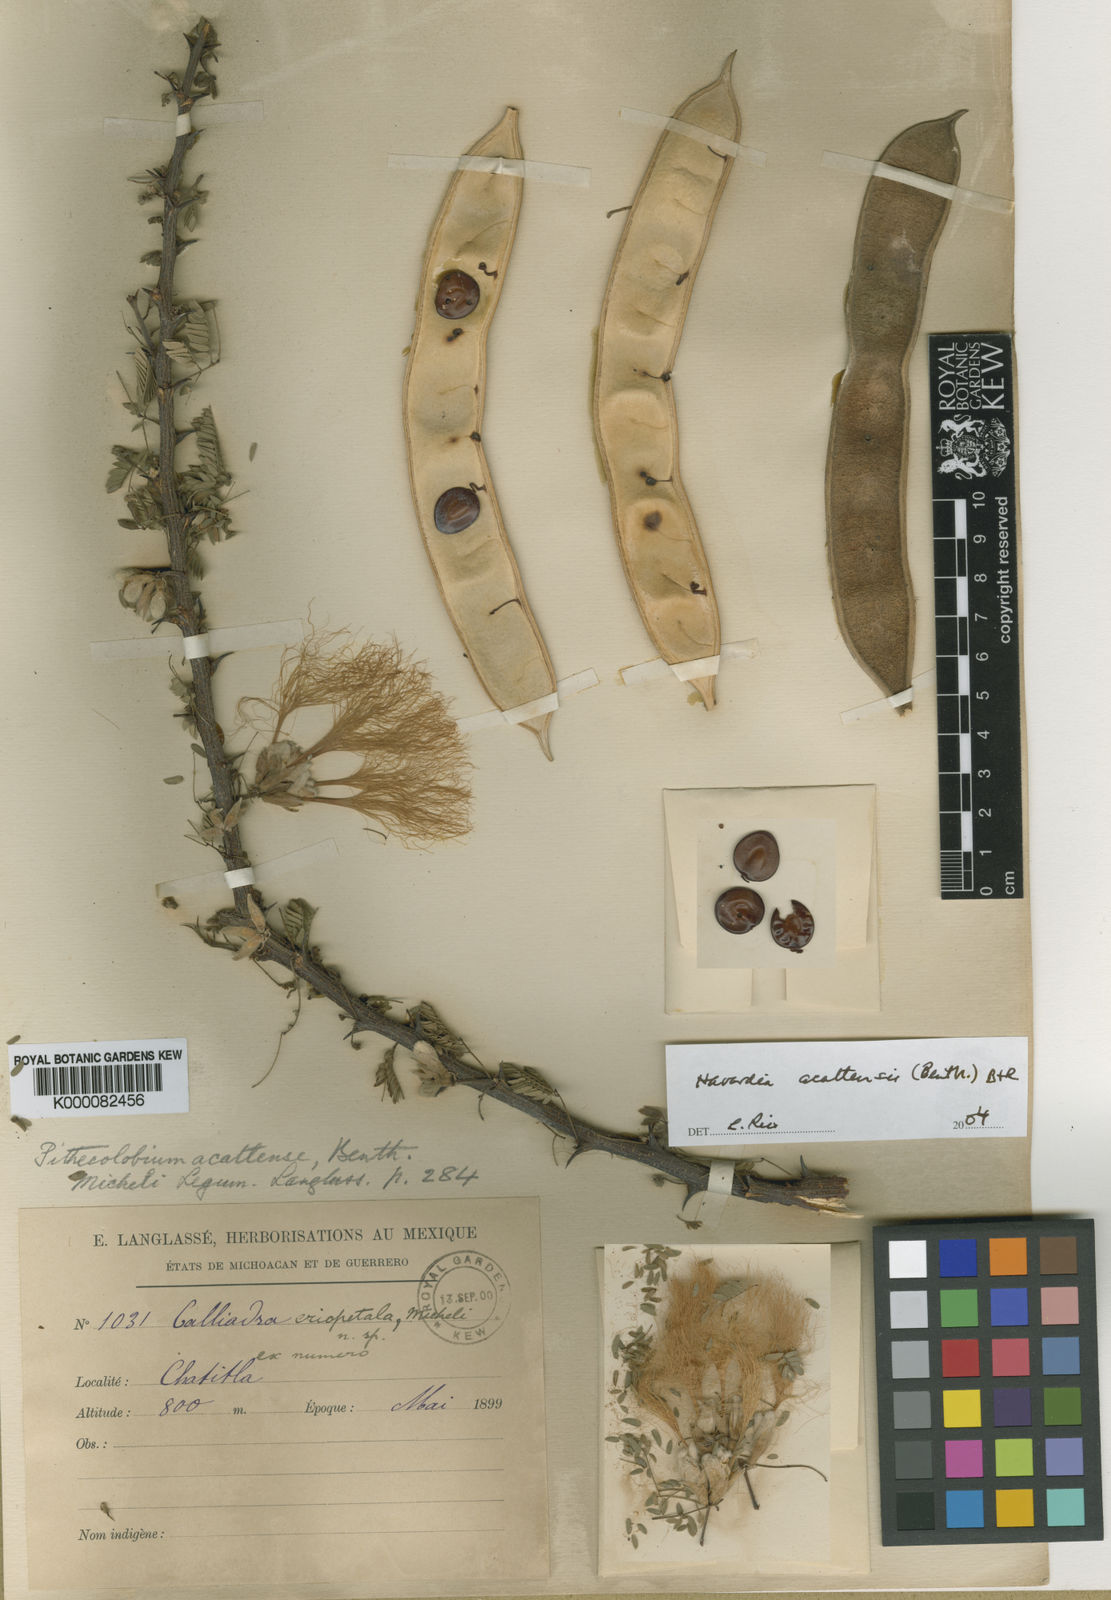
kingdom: Plantae
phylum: Tracheophyta
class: Magnoliopsida
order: Fabales
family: Fabaceae
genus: Havardia
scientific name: Havardia acatlensis
